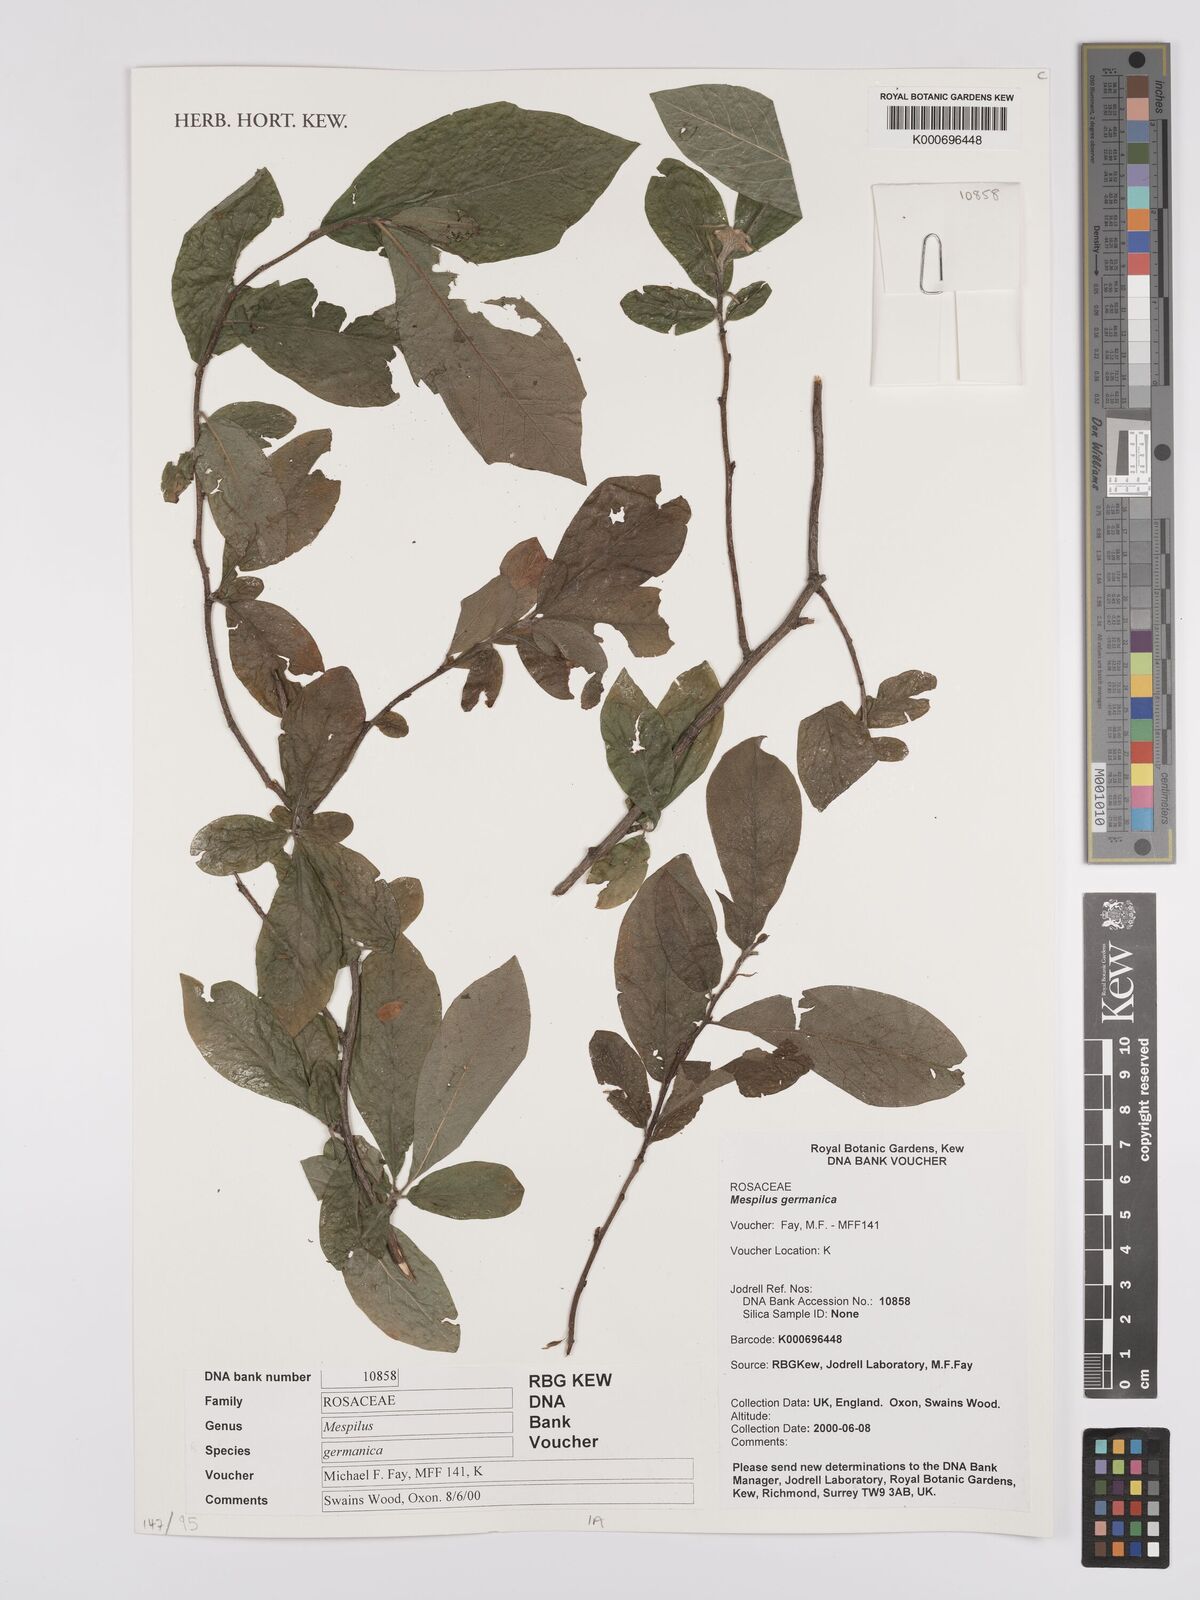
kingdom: Plantae
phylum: Tracheophyta
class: Magnoliopsida
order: Rosales
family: Rosaceae
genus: Mespilus
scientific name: Mespilus germanica
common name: Medlar
